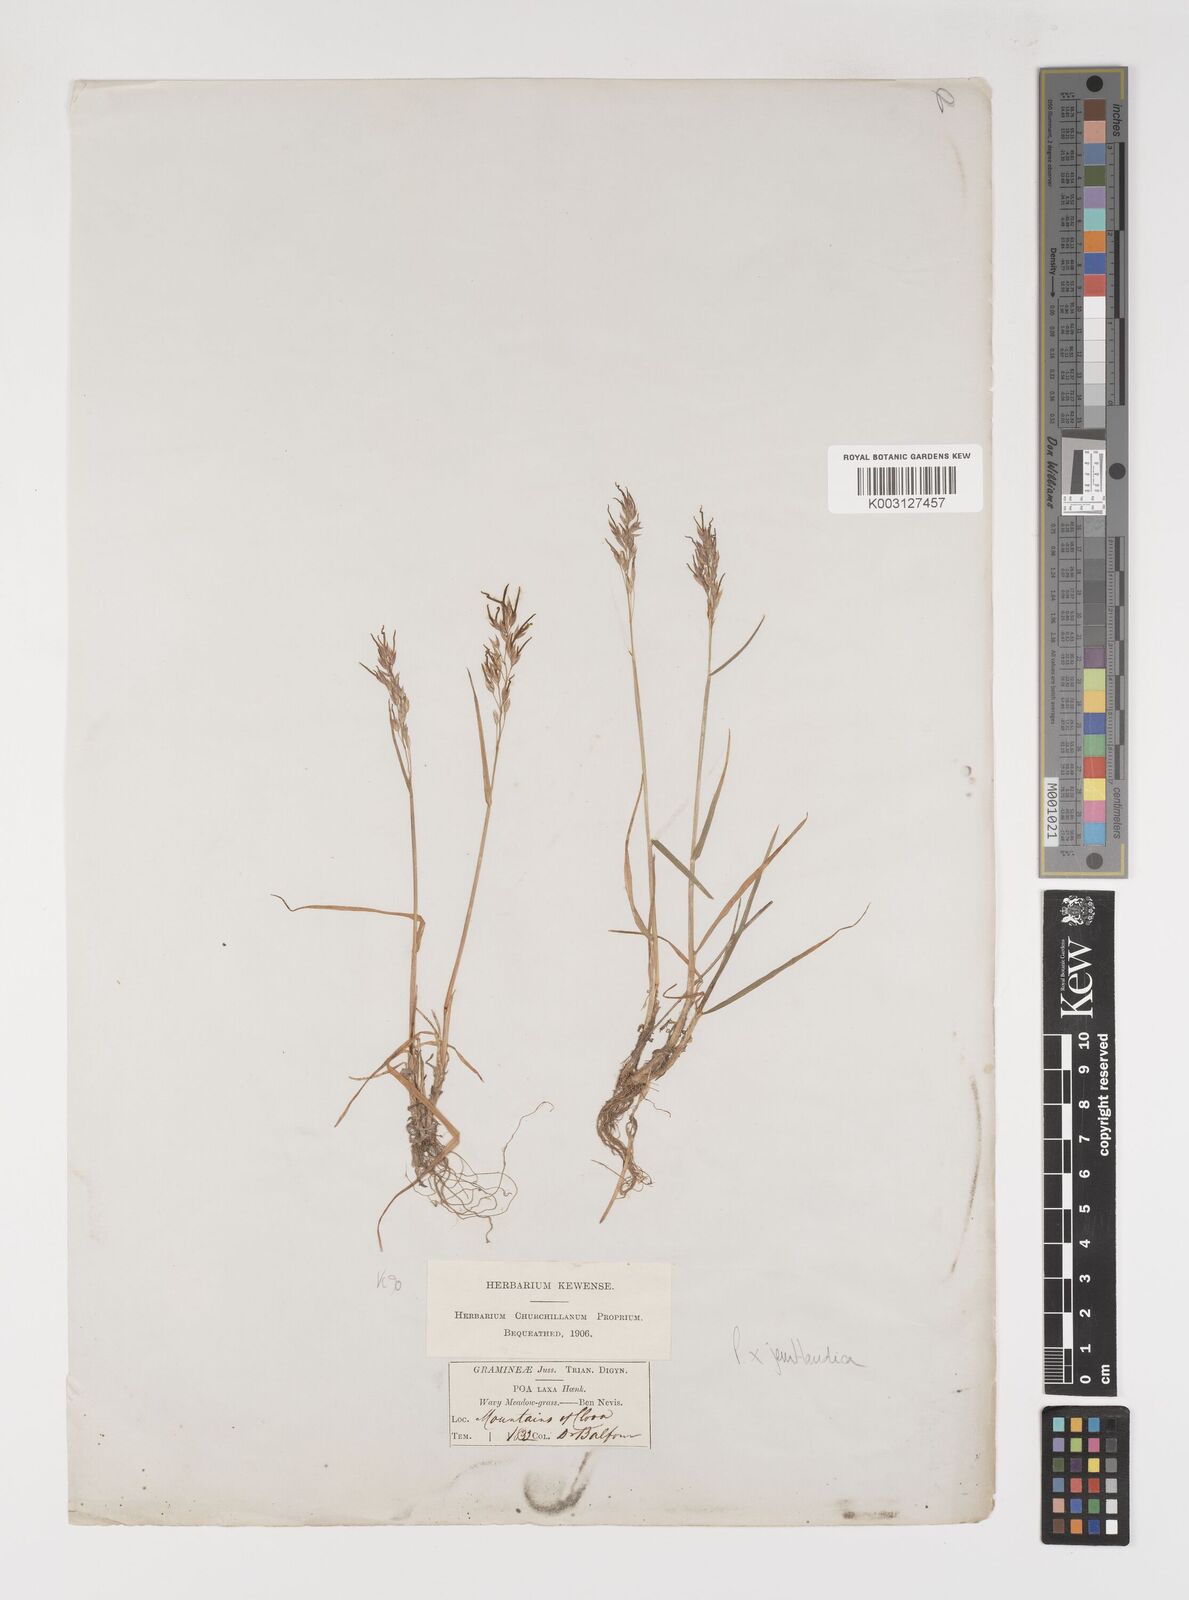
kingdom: Plantae
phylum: Tracheophyta
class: Liliopsida
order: Poales
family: Poaceae
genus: Poa
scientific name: Poa jemtlandica
